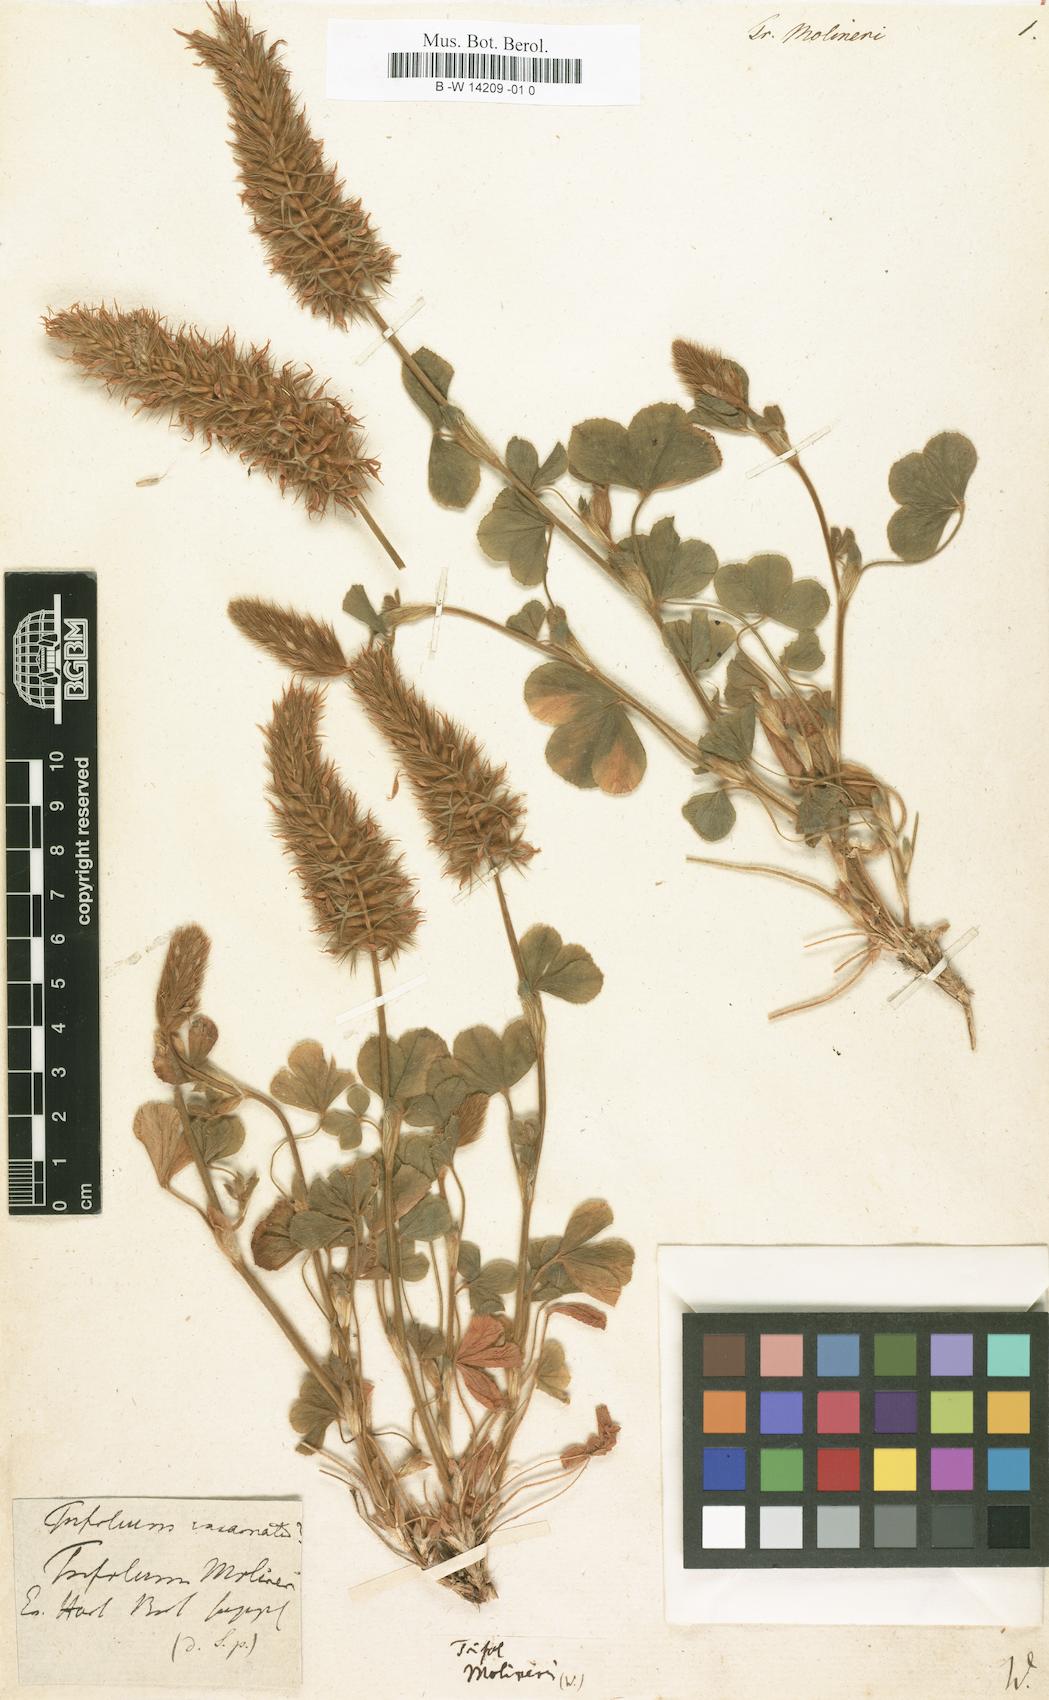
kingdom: Plantae
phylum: Tracheophyta
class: Magnoliopsida
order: Fabales
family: Fabaceae
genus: Trifolium
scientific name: Trifolium incarnatum
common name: Crimson clover
